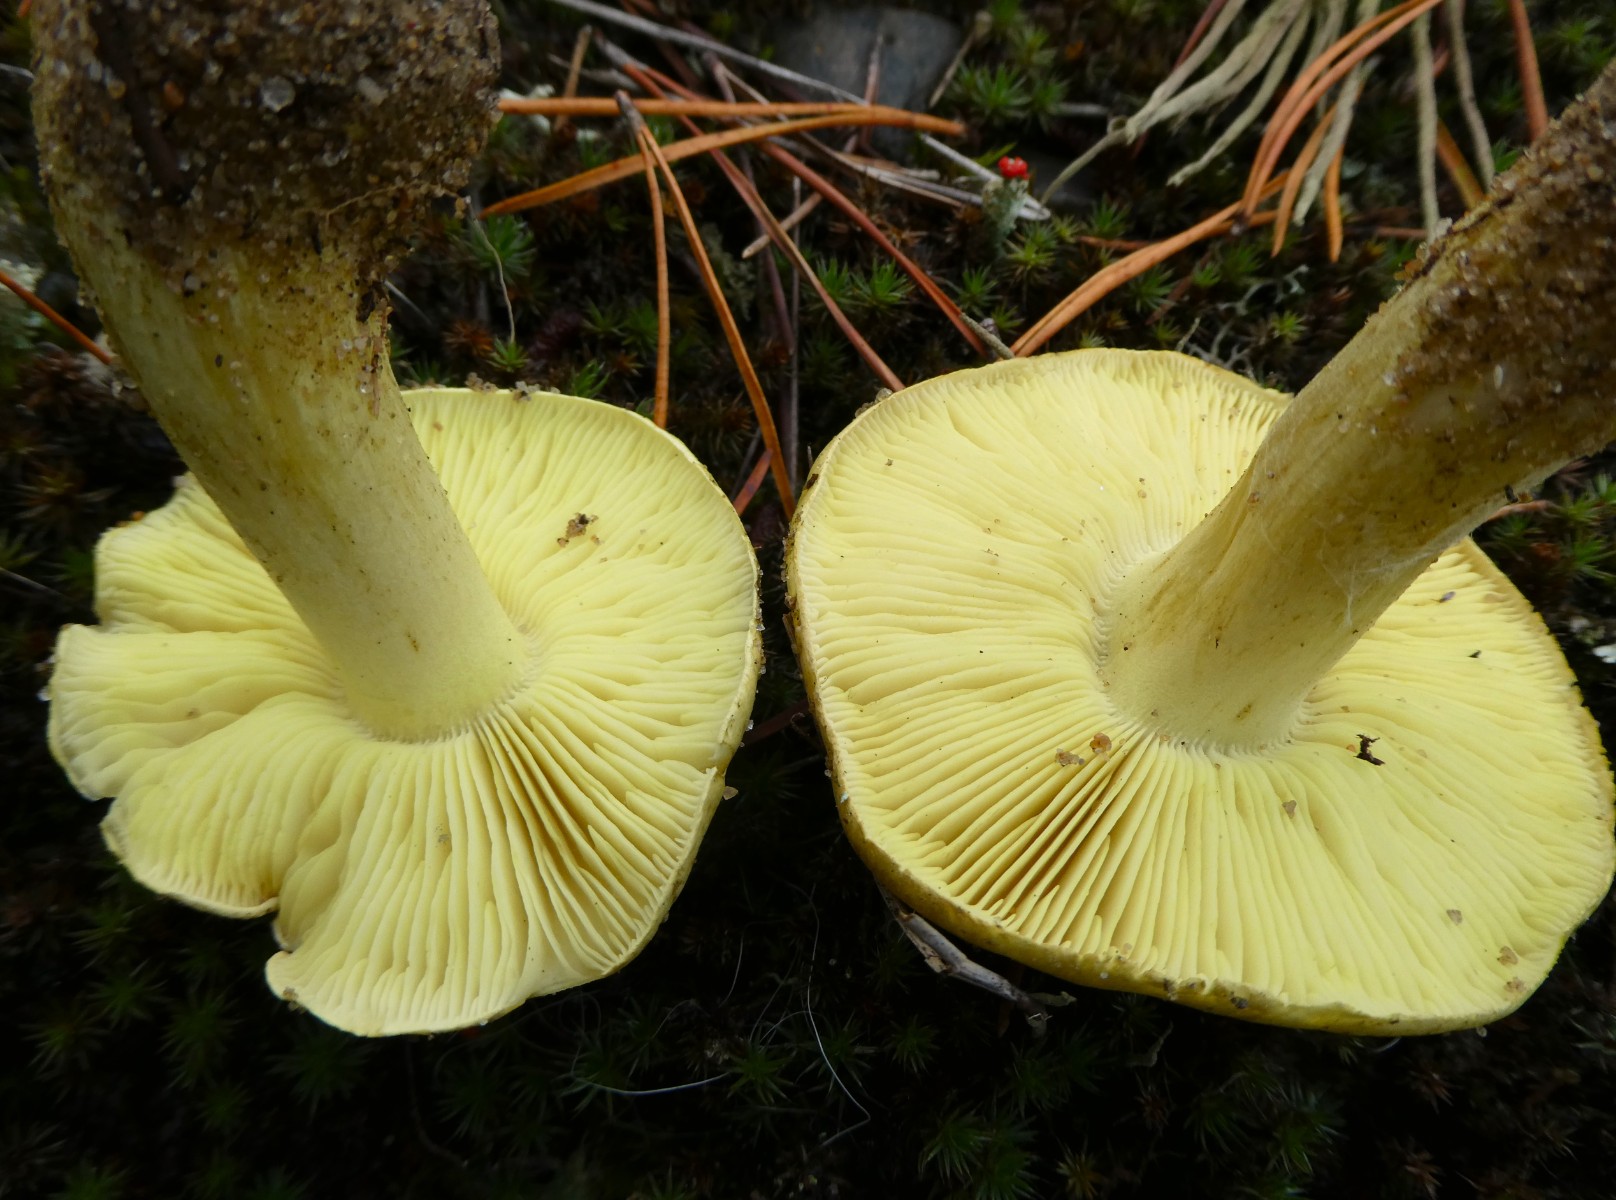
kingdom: Fungi
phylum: Basidiomycota
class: Agaricomycetes
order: Agaricales
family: Tricholomataceae
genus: Tricholoma
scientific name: Tricholoma equestre
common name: ægte ridderhat
